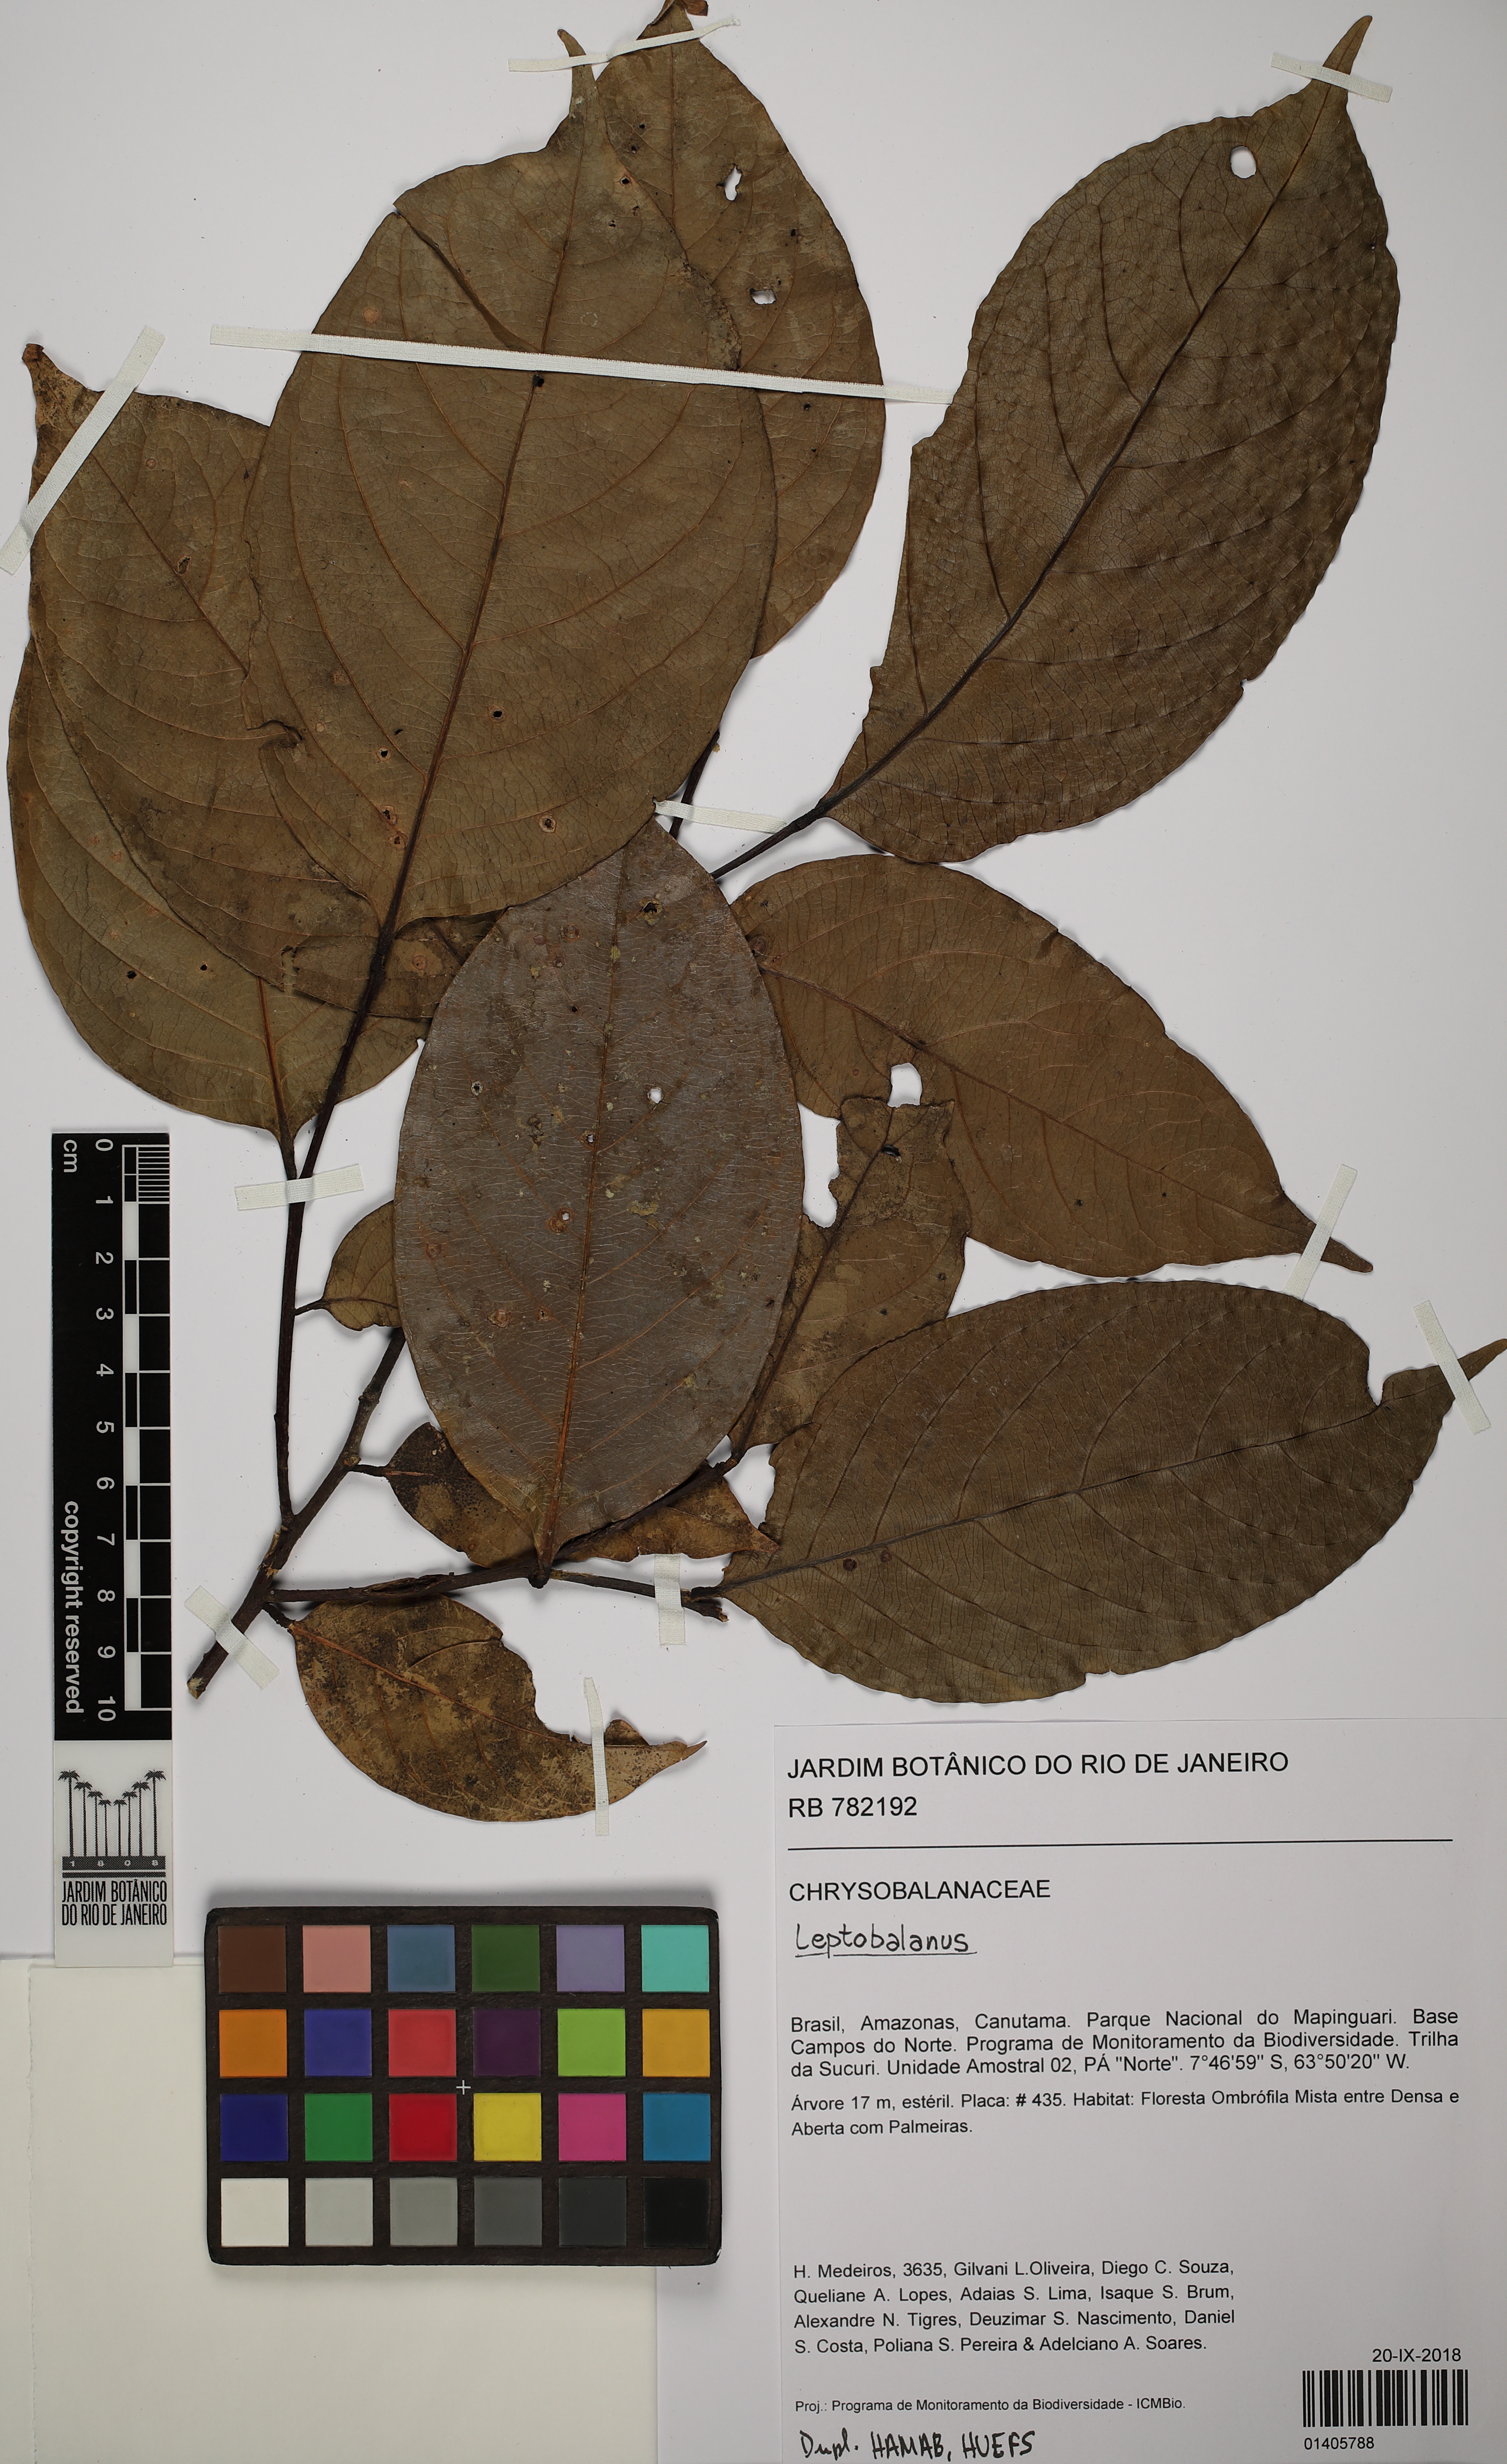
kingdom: Plantae
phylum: Tracheophyta
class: Magnoliopsida
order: Malpighiales
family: Chrysobalanaceae
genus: Leptobalanus
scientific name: Leptobalanus
